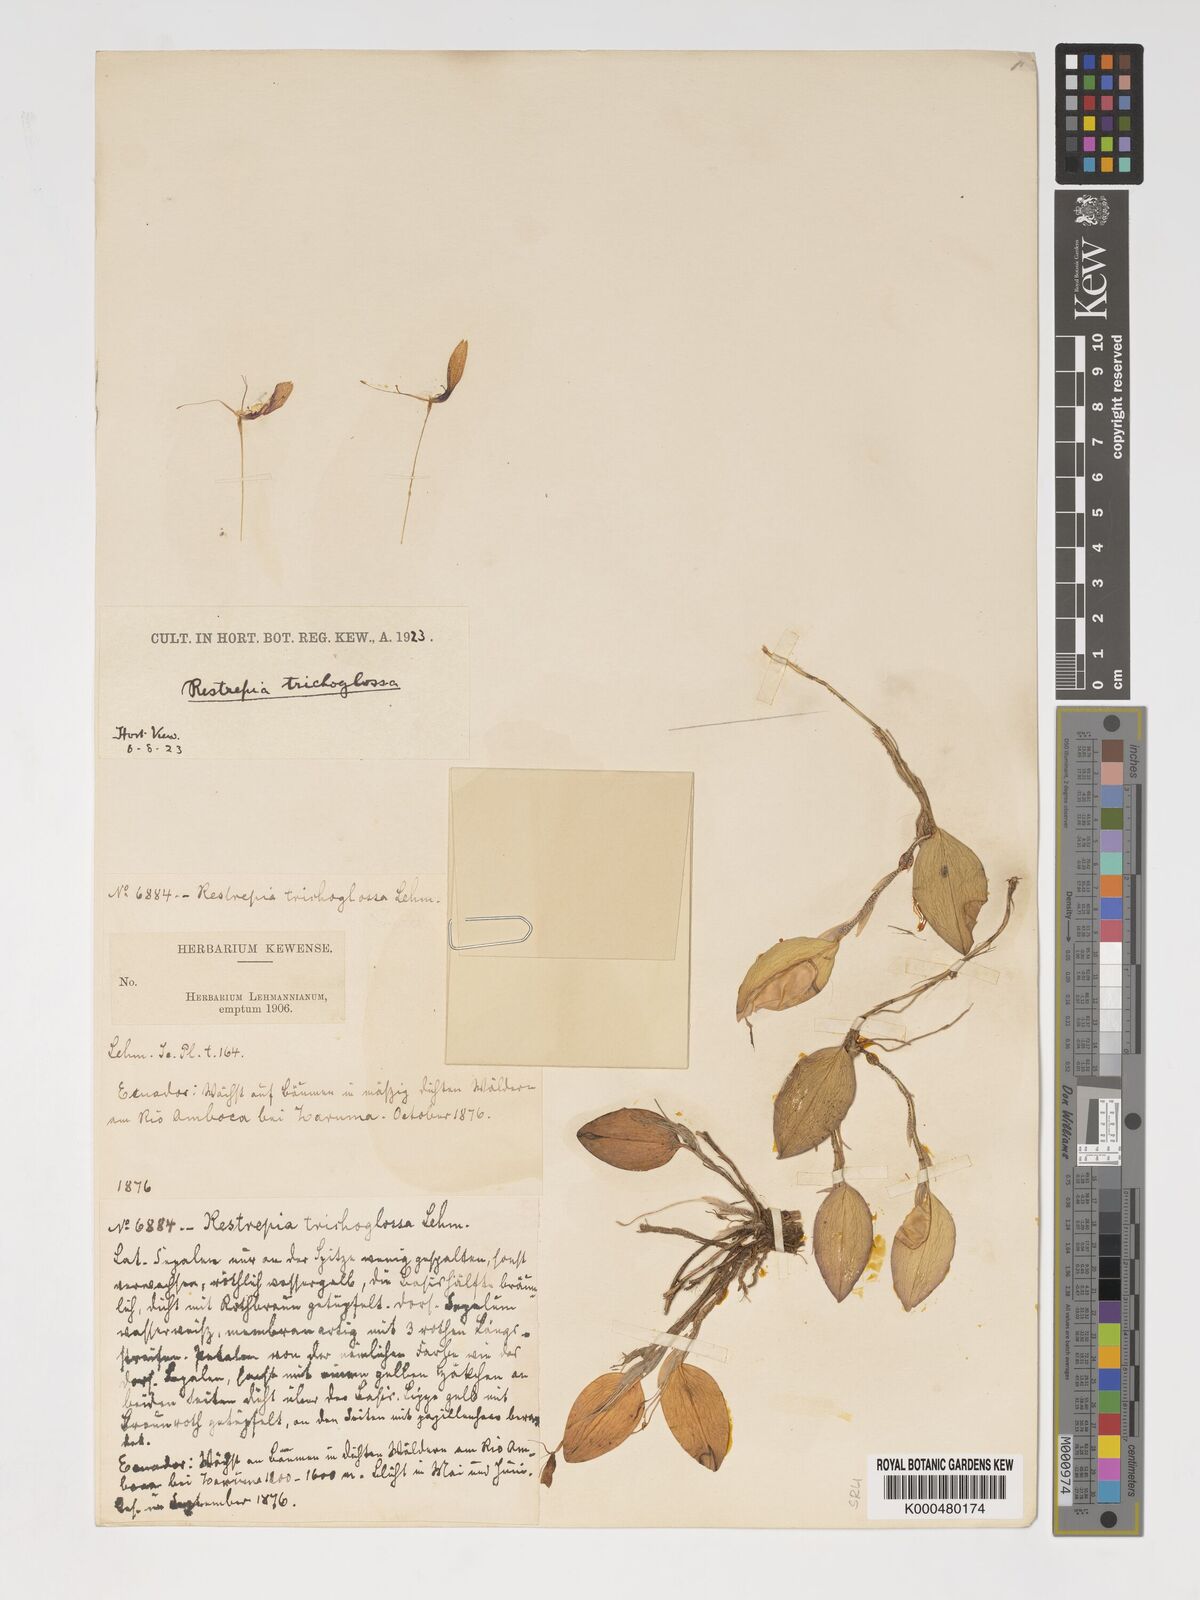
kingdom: Plantae
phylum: Tracheophyta
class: Liliopsida
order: Asparagales
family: Orchidaceae
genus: Pterostylis
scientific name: Pterostylis
